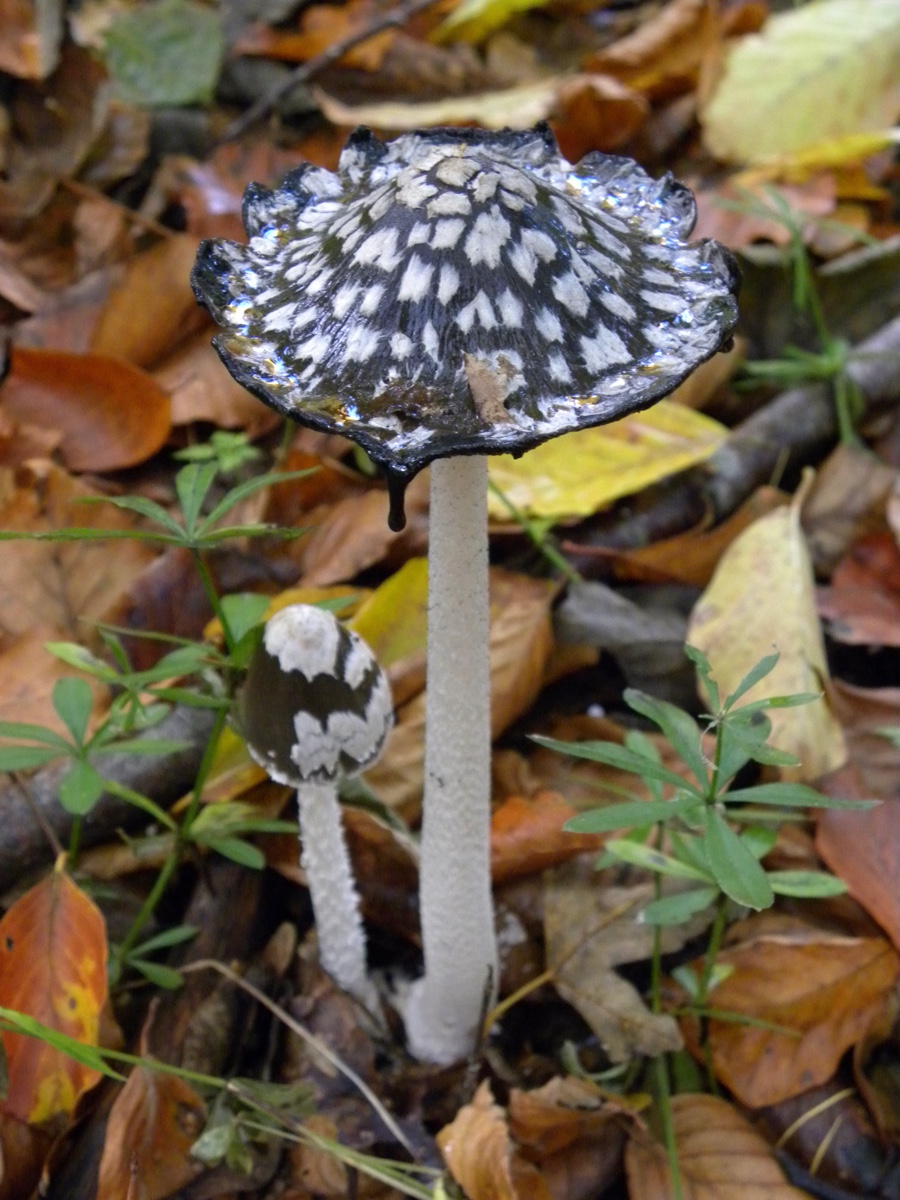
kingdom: Fungi
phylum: Basidiomycota
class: Agaricomycetes
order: Agaricales
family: Psathyrellaceae
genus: Coprinopsis
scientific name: Coprinopsis picacea
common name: skade-blækhat
